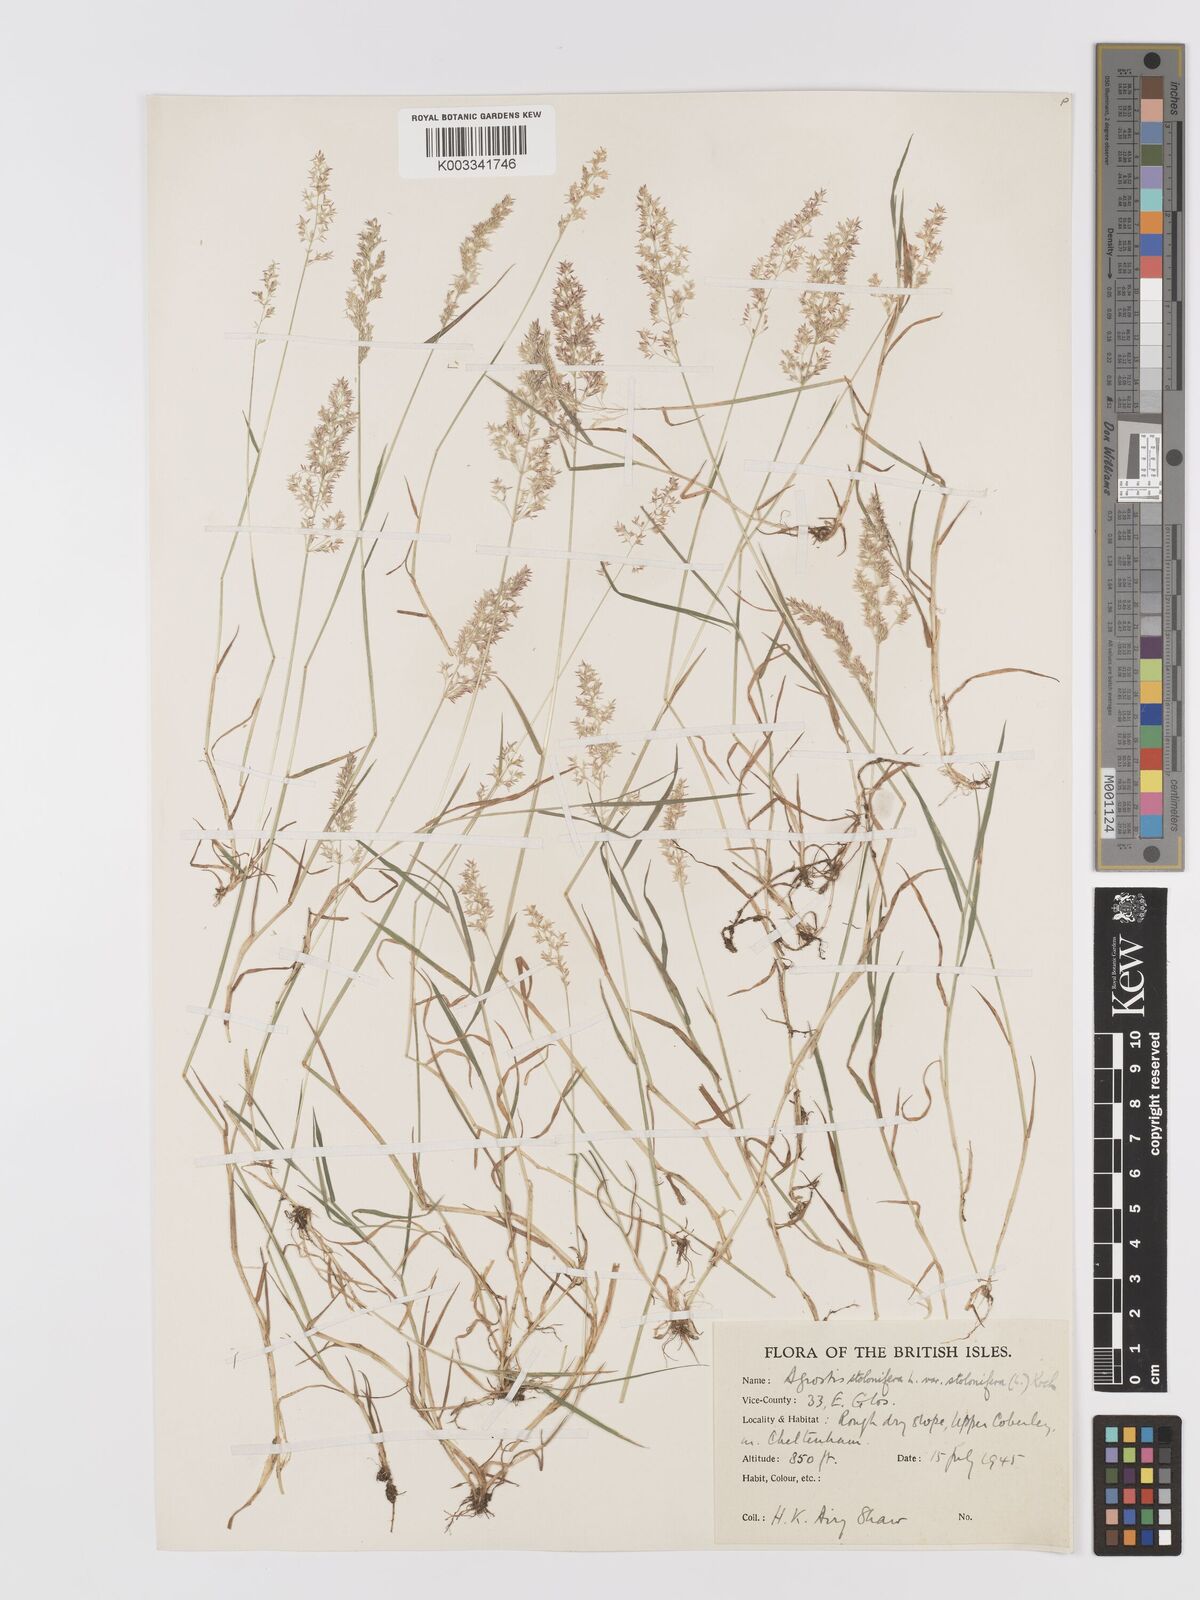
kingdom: Plantae
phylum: Tracheophyta
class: Liliopsida
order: Poales
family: Poaceae
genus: Agrostis
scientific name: Agrostis stolonifera
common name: Creeping bentgrass
